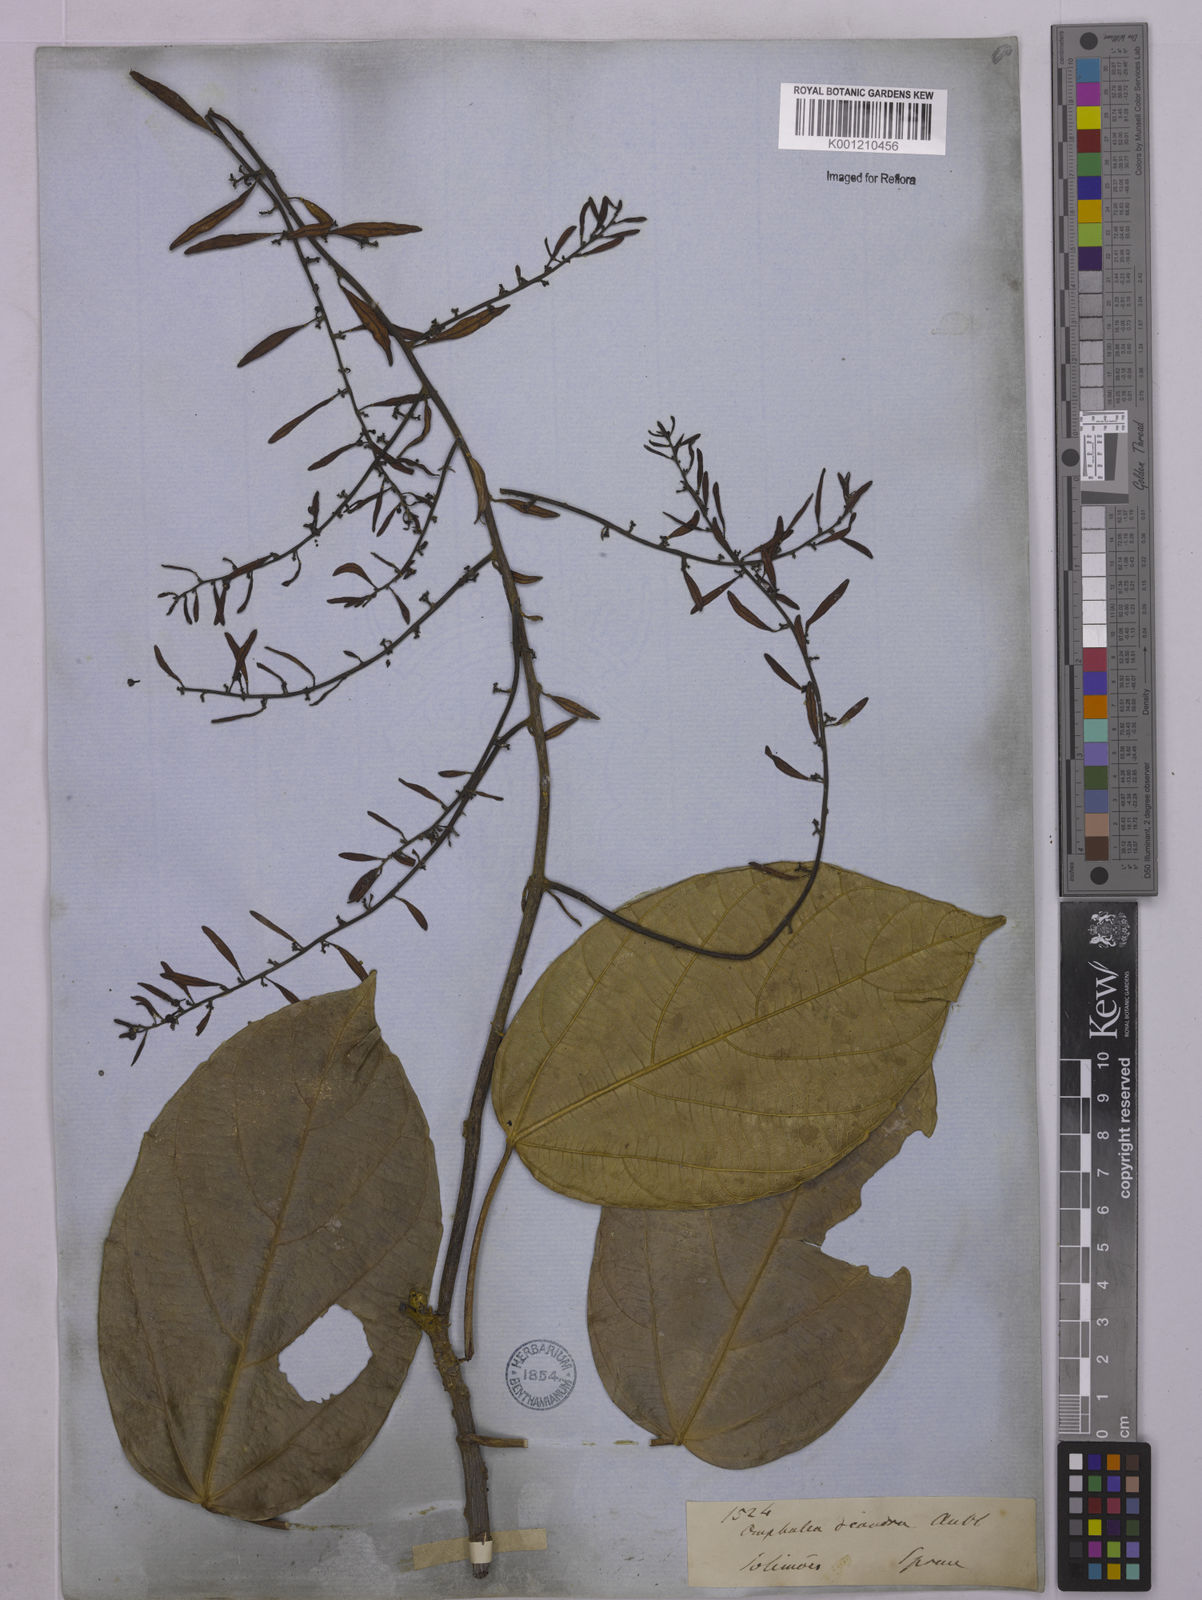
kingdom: Plantae
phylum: Tracheophyta
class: Magnoliopsida
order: Malpighiales
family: Euphorbiaceae
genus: Omphalea
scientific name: Omphalea diandra
